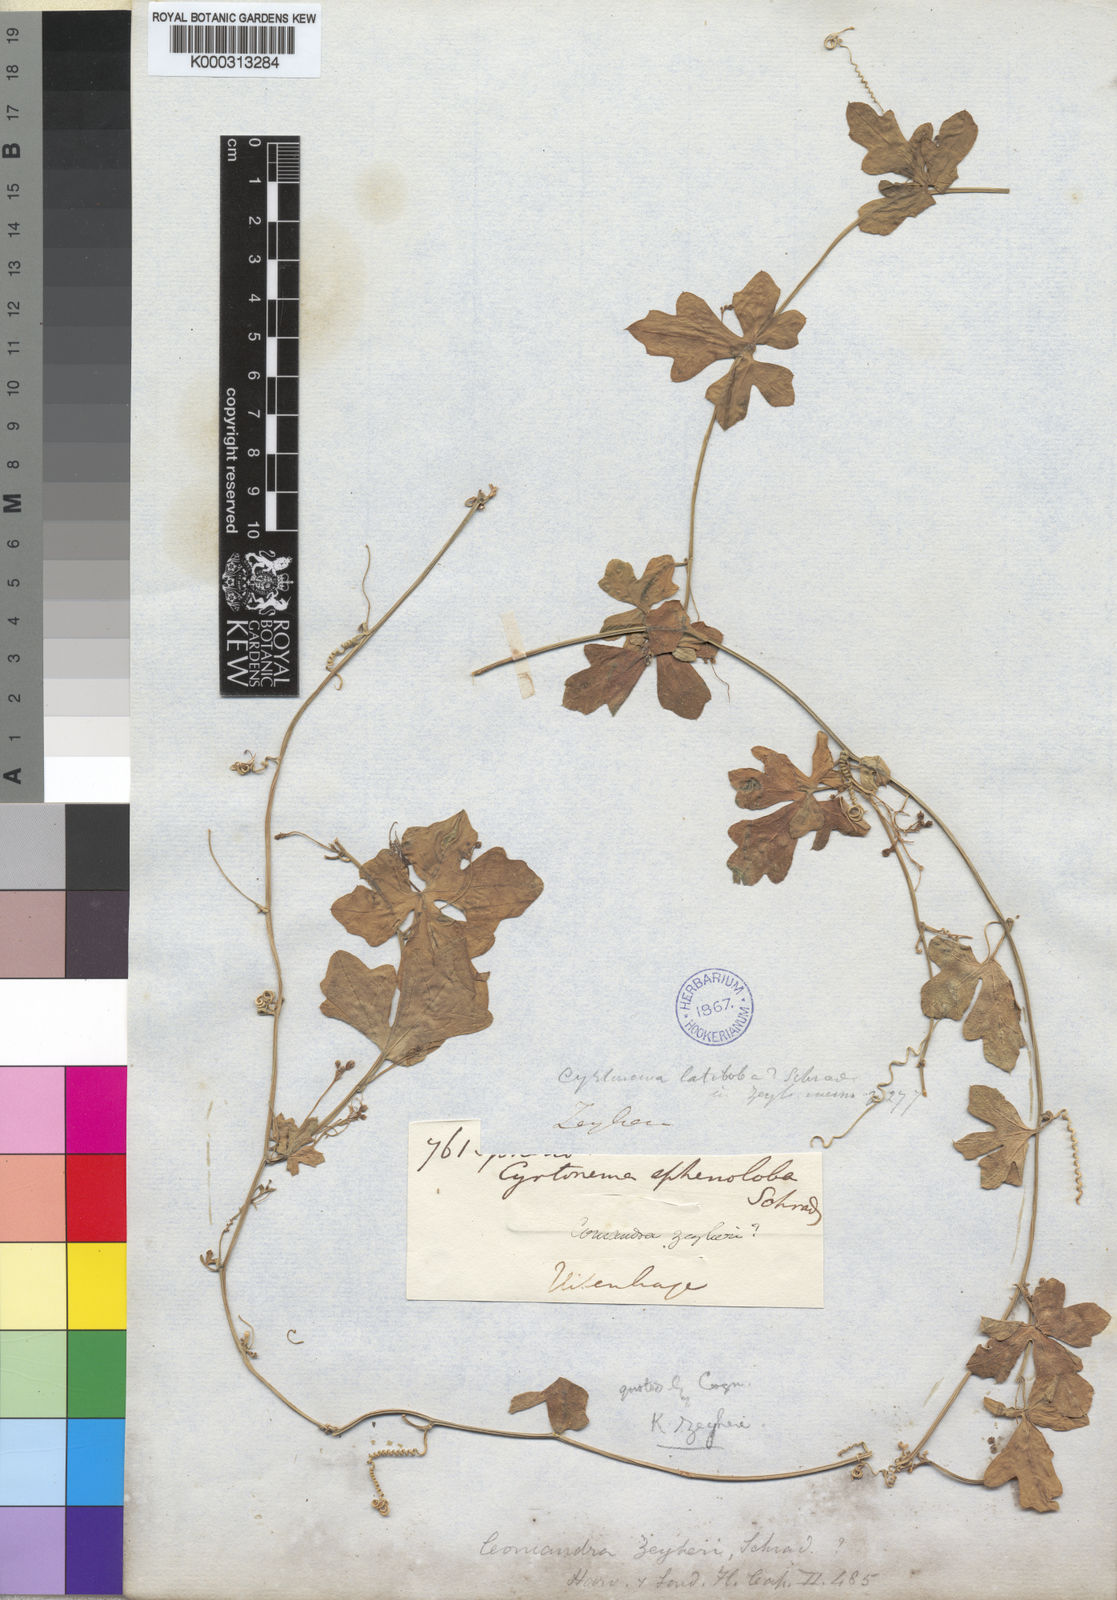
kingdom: Plantae
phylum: Tracheophyta
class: Magnoliopsida
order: Cucurbitales
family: Cucurbitaceae
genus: Kedrostis
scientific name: Kedrostis africana
